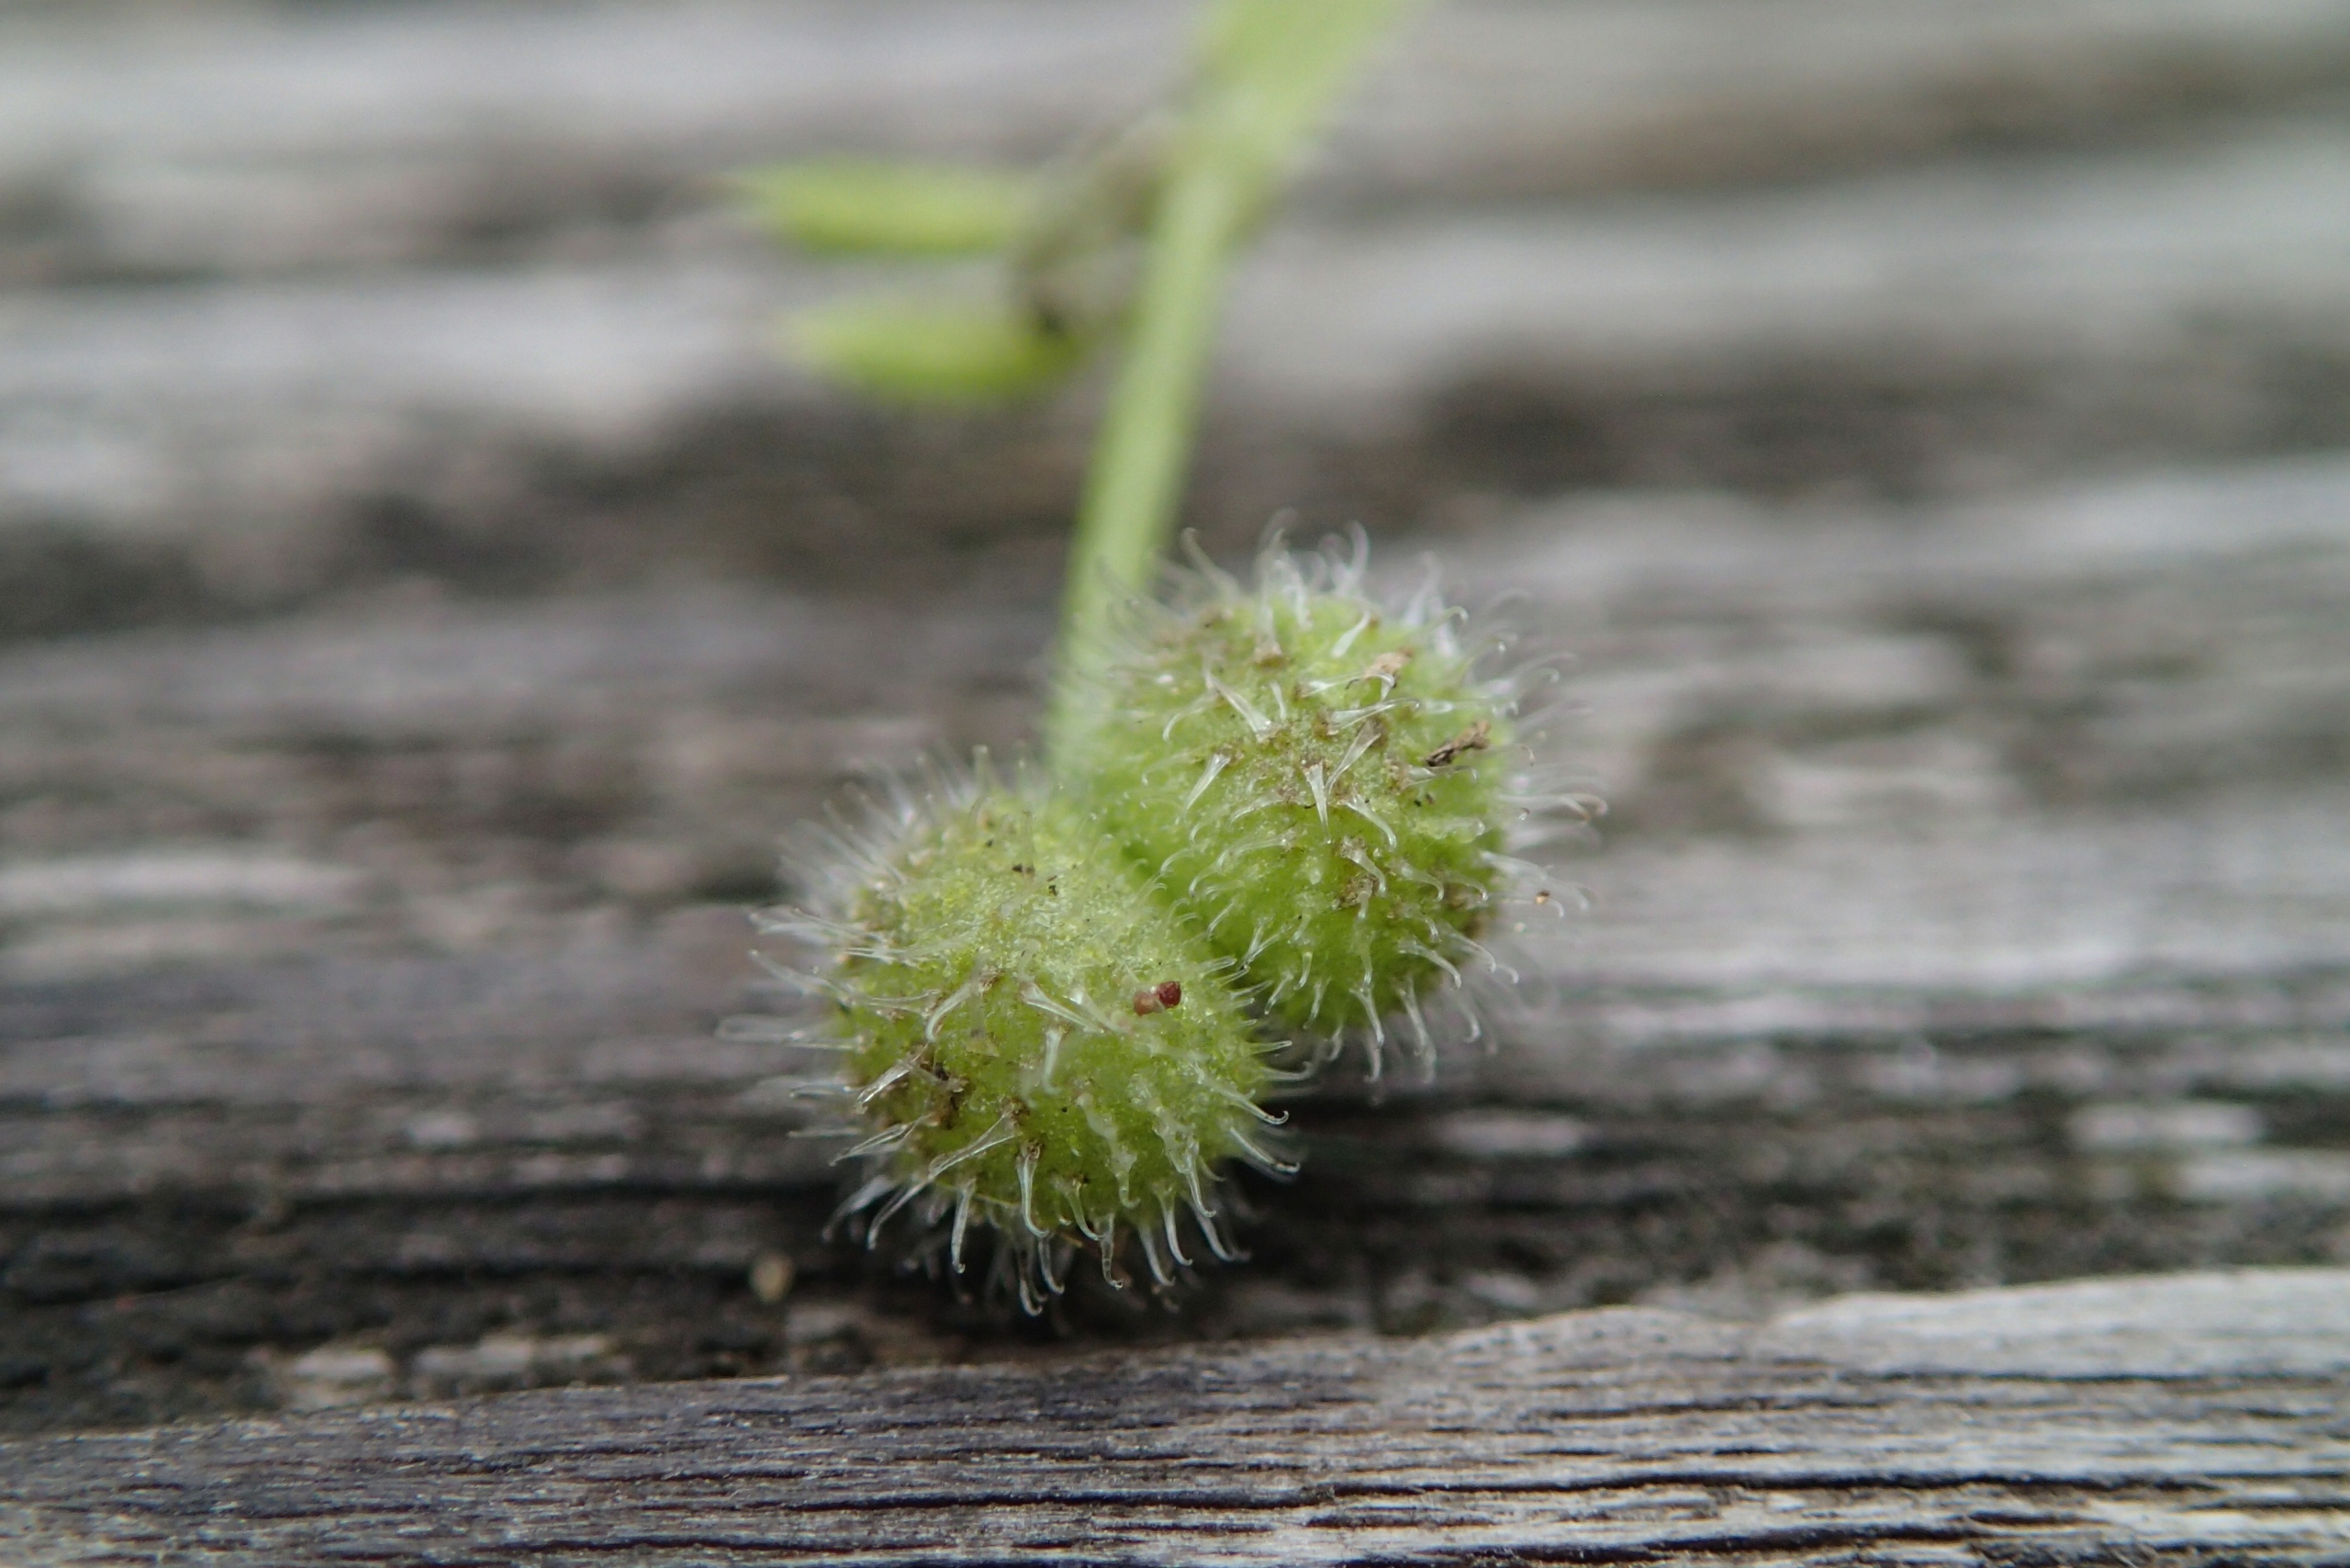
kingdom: Plantae
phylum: Tracheophyta
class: Magnoliopsida
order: Gentianales
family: Rubiaceae
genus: Galium
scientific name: Galium aparine
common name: Burre-snerre
